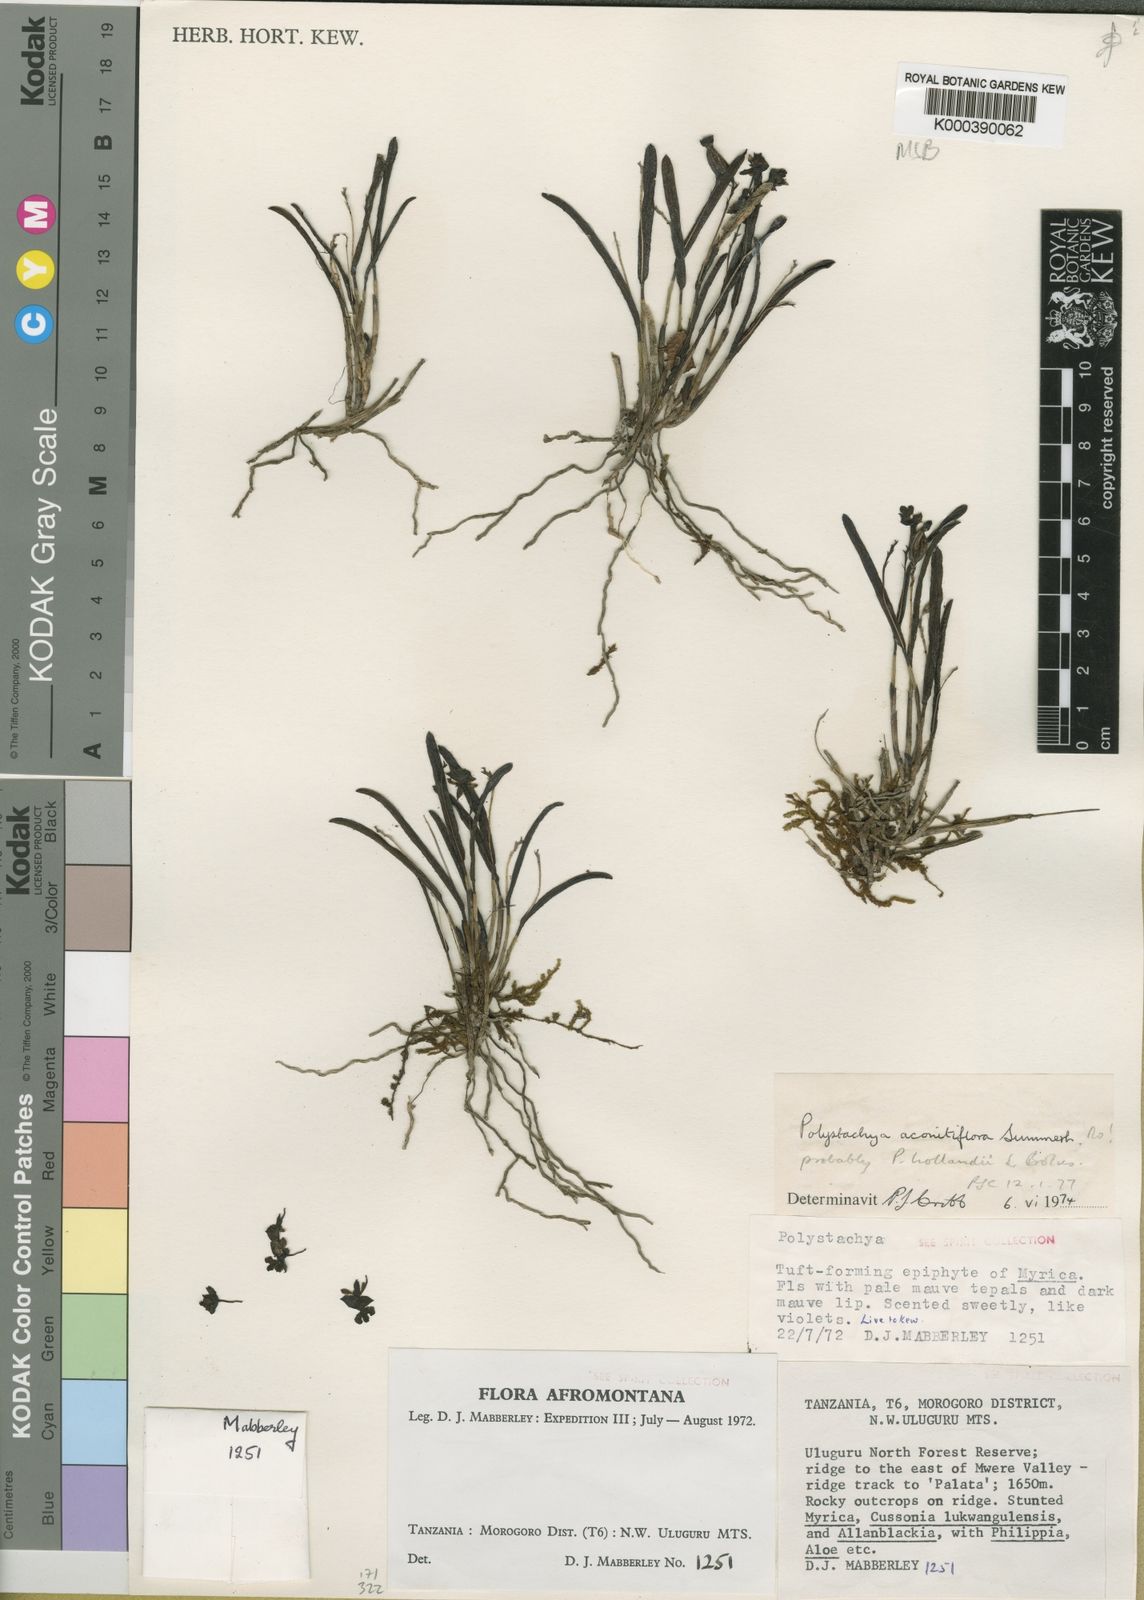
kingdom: Plantae
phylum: Tracheophyta
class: Liliopsida
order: Asparagales
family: Orchidaceae
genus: Polystachya
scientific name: Polystachya caespitifica
